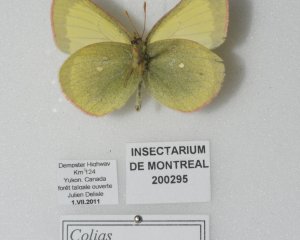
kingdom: Animalia
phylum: Arthropoda
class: Insecta
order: Lepidoptera
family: Pieridae
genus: Colias
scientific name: Colias palaeno
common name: Chippewa Sulphur
